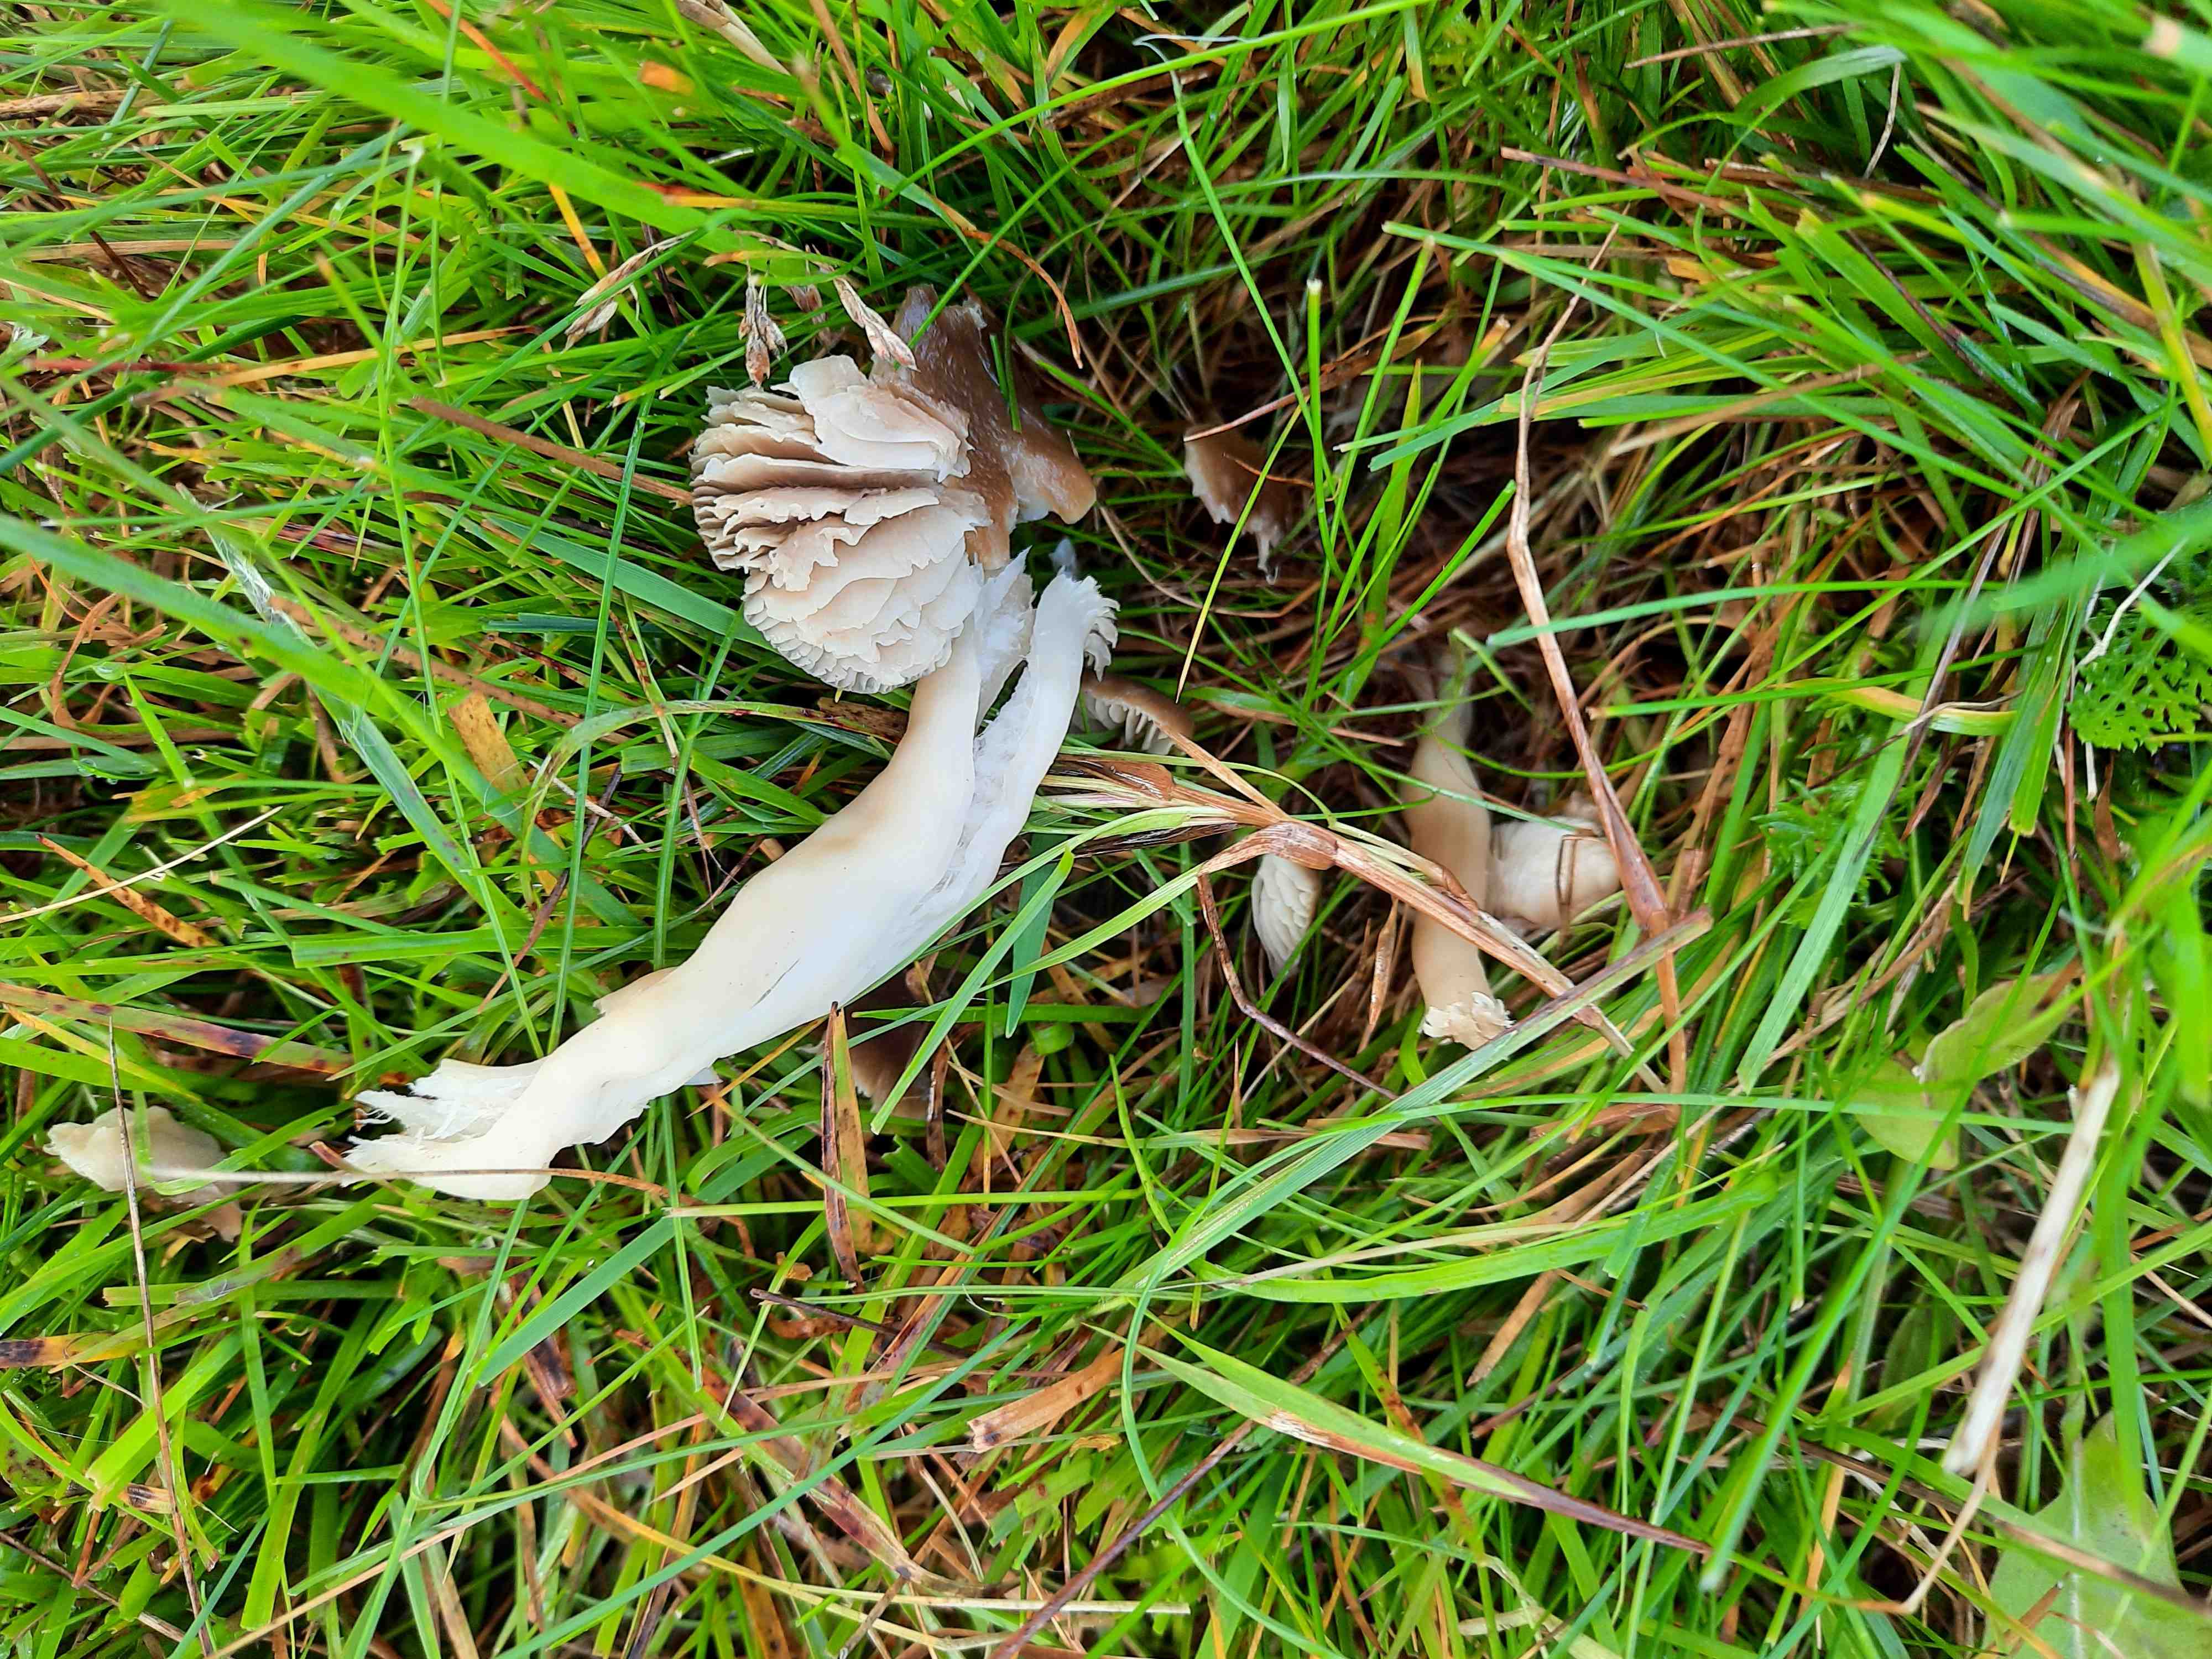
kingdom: Fungi
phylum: Basidiomycota
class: Agaricomycetes
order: Agaricales
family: Hygrophoraceae
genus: Neohygrocybe
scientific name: Neohygrocybe nitrata
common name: stinkende vokshat
